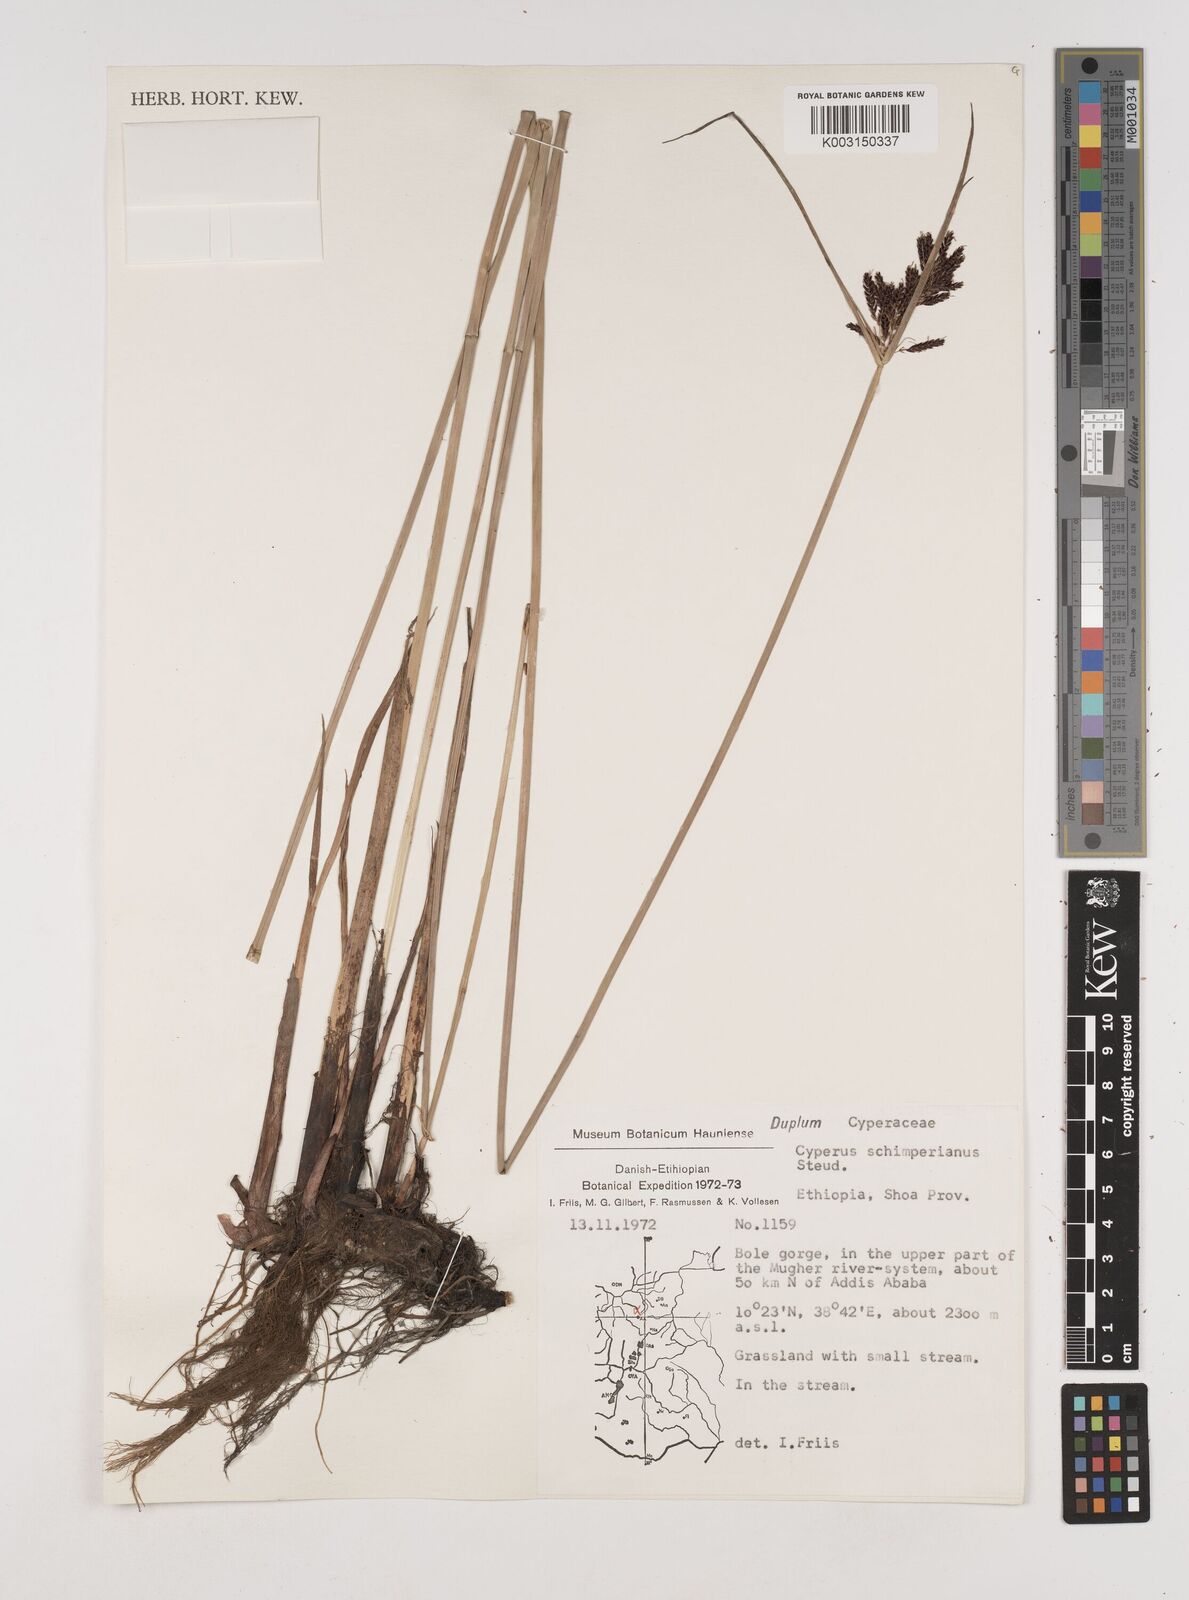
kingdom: Plantae
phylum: Tracheophyta
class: Liliopsida
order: Poales
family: Cyperaceae
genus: Cyperus
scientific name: Cyperus schimperianus
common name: Schimper flatsedge
